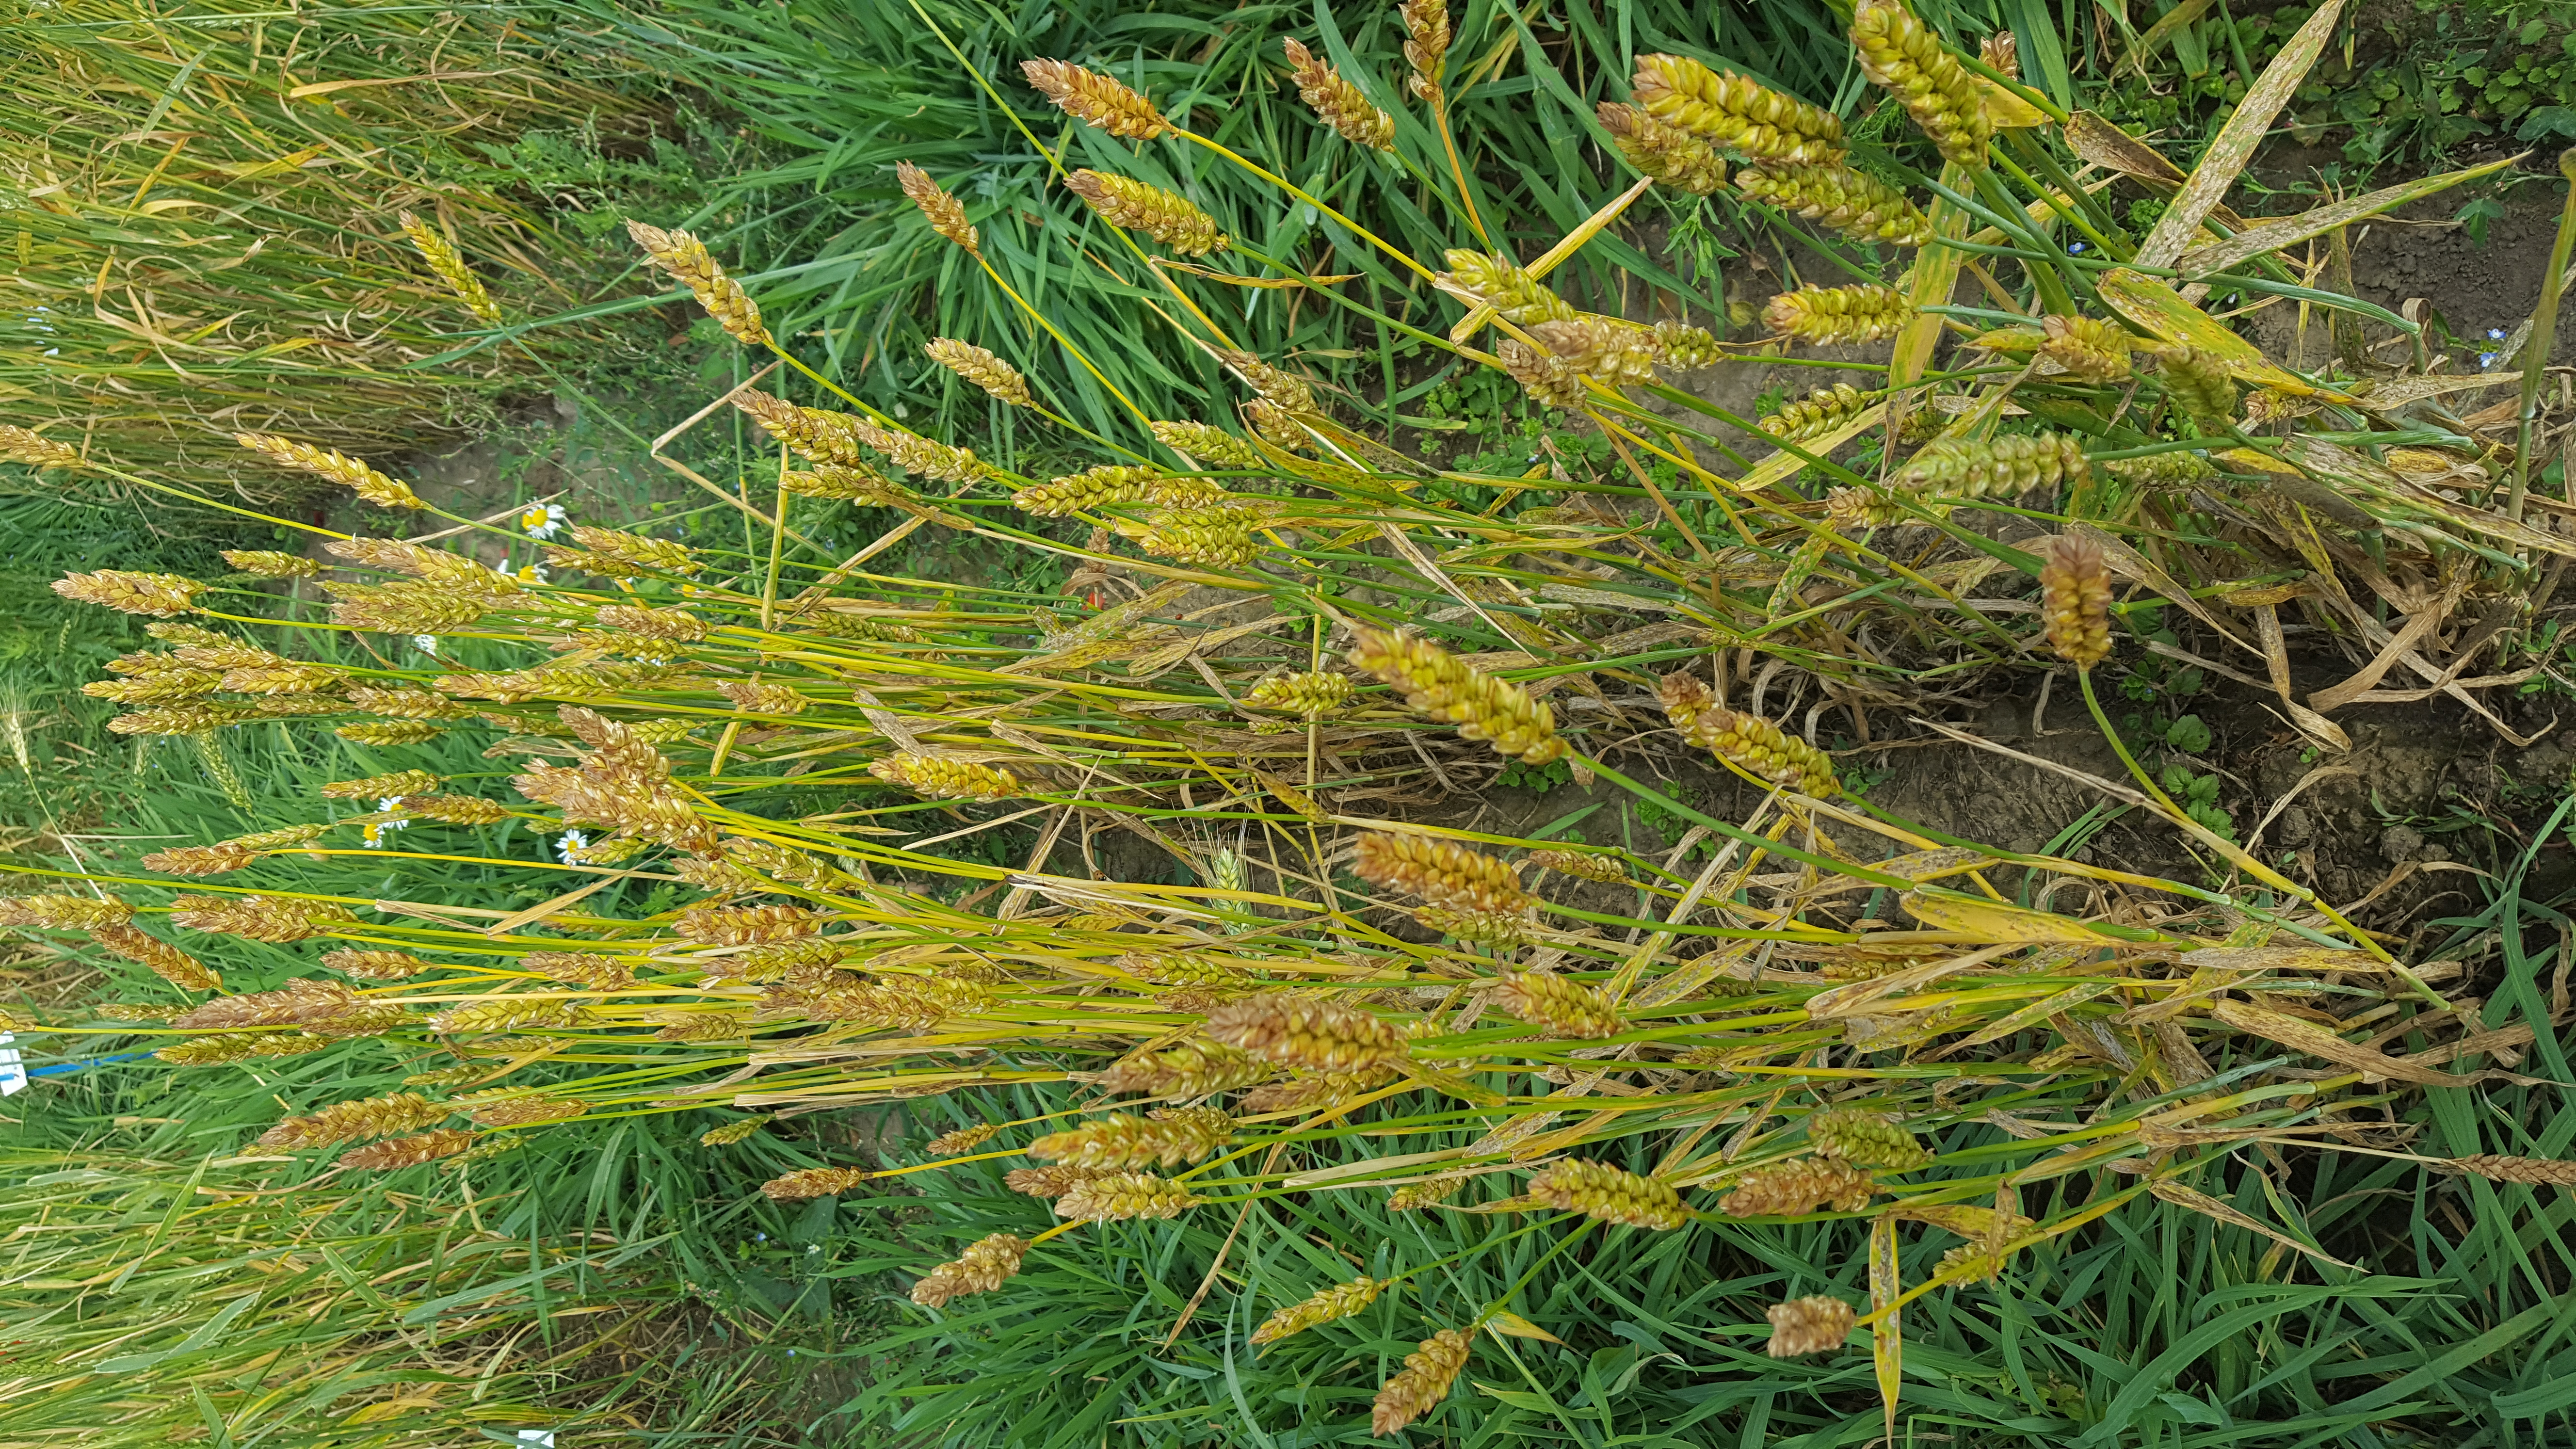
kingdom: Plantae
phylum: Tracheophyta
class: Liliopsida
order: Poales
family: Poaceae
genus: Triticum
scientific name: Triticum aestivum
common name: Common wheat
